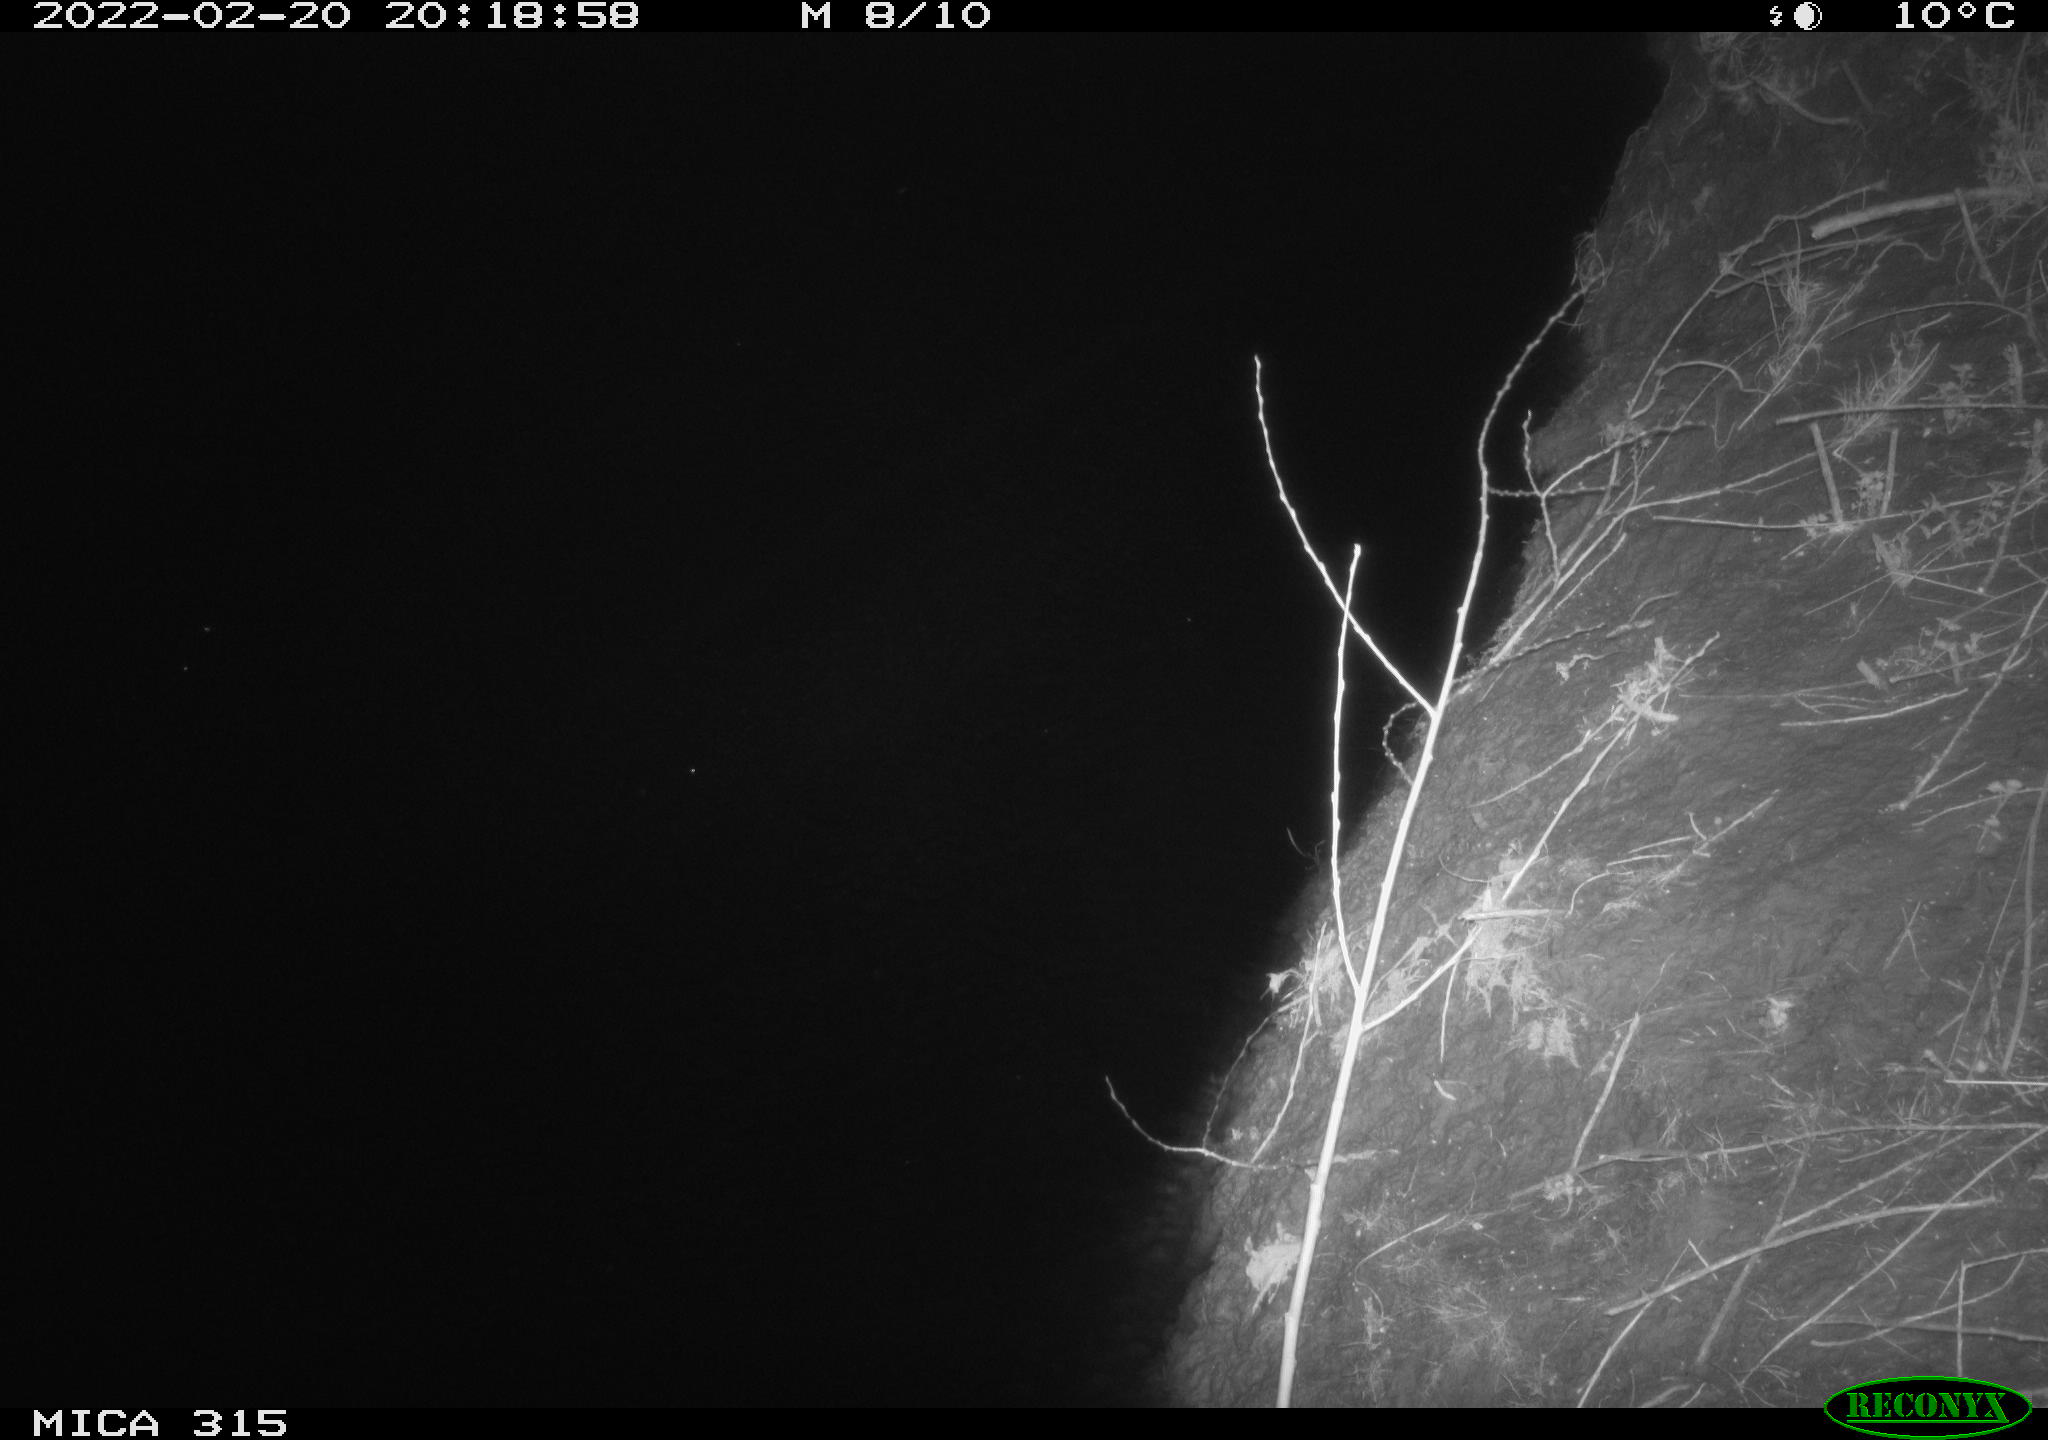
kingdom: Animalia
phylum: Chordata
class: Mammalia
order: Rodentia
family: Muridae
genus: Rattus
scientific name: Rattus norvegicus
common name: Brown rat
